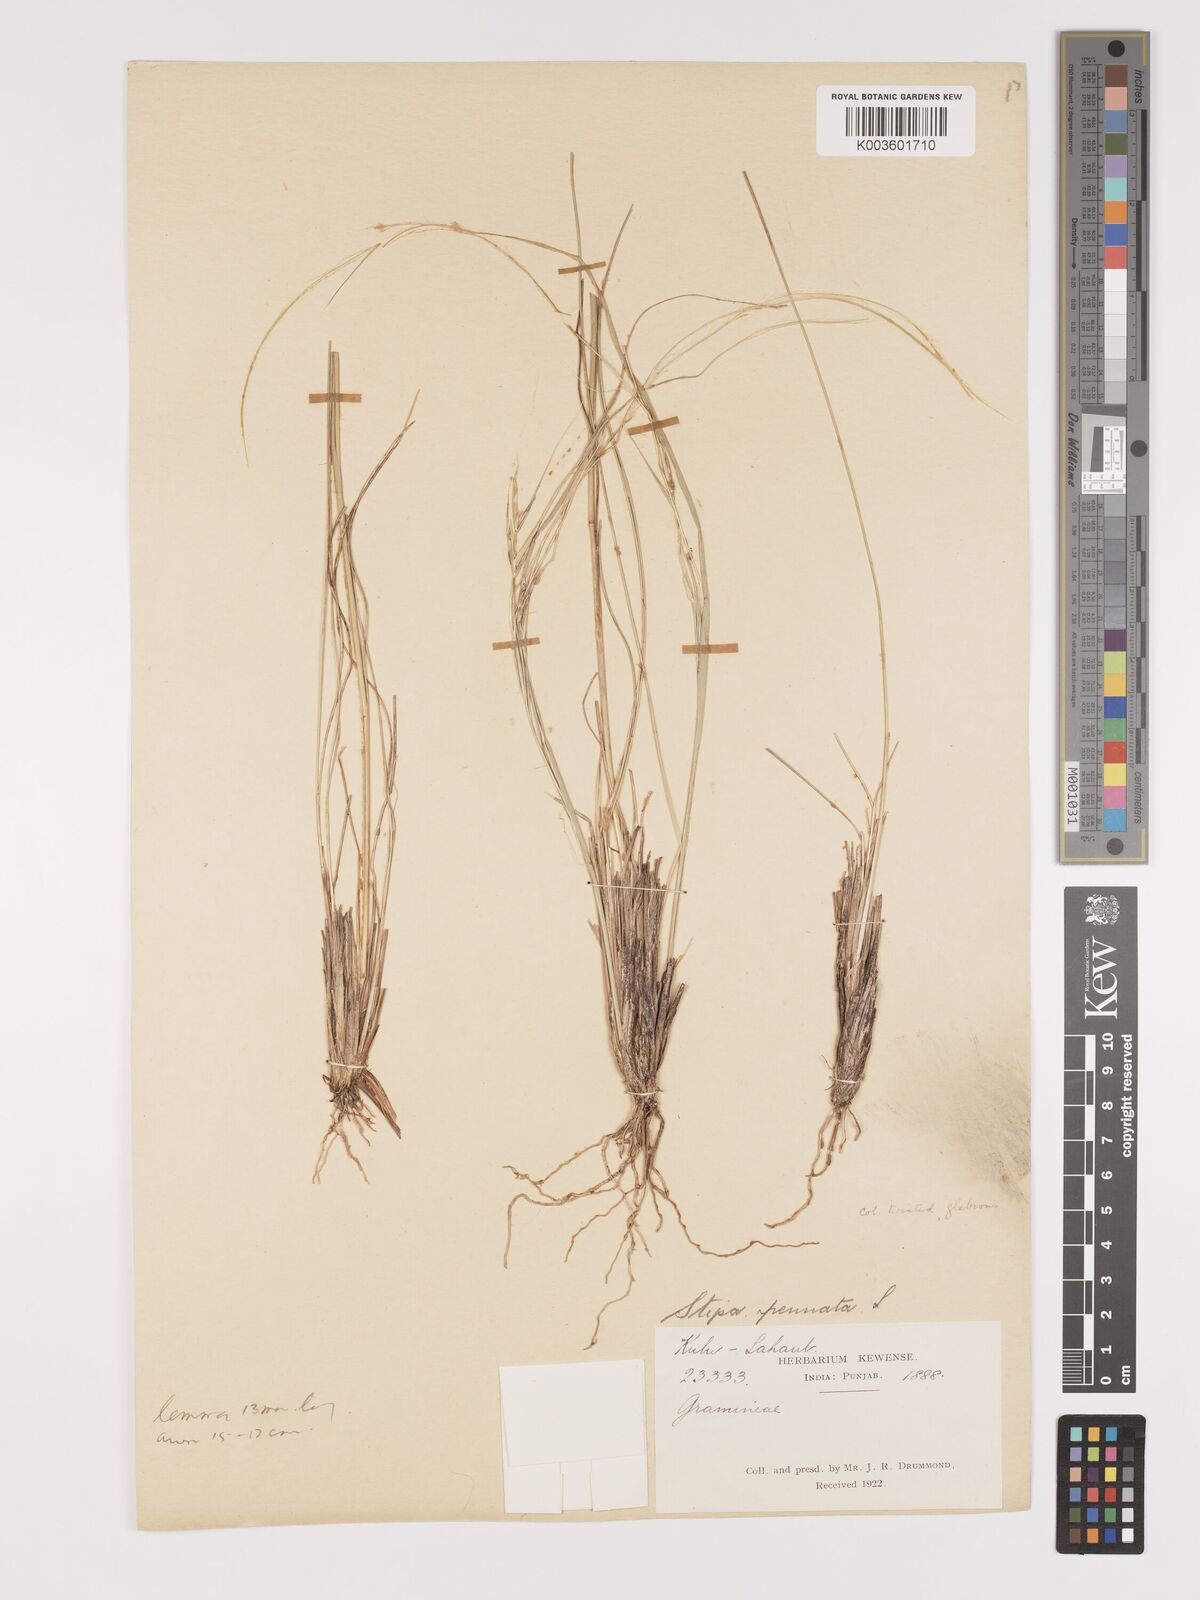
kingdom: Plantae
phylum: Tracheophyta
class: Liliopsida
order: Poales
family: Poaceae
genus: Stipa
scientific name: Stipa kirghisorum
